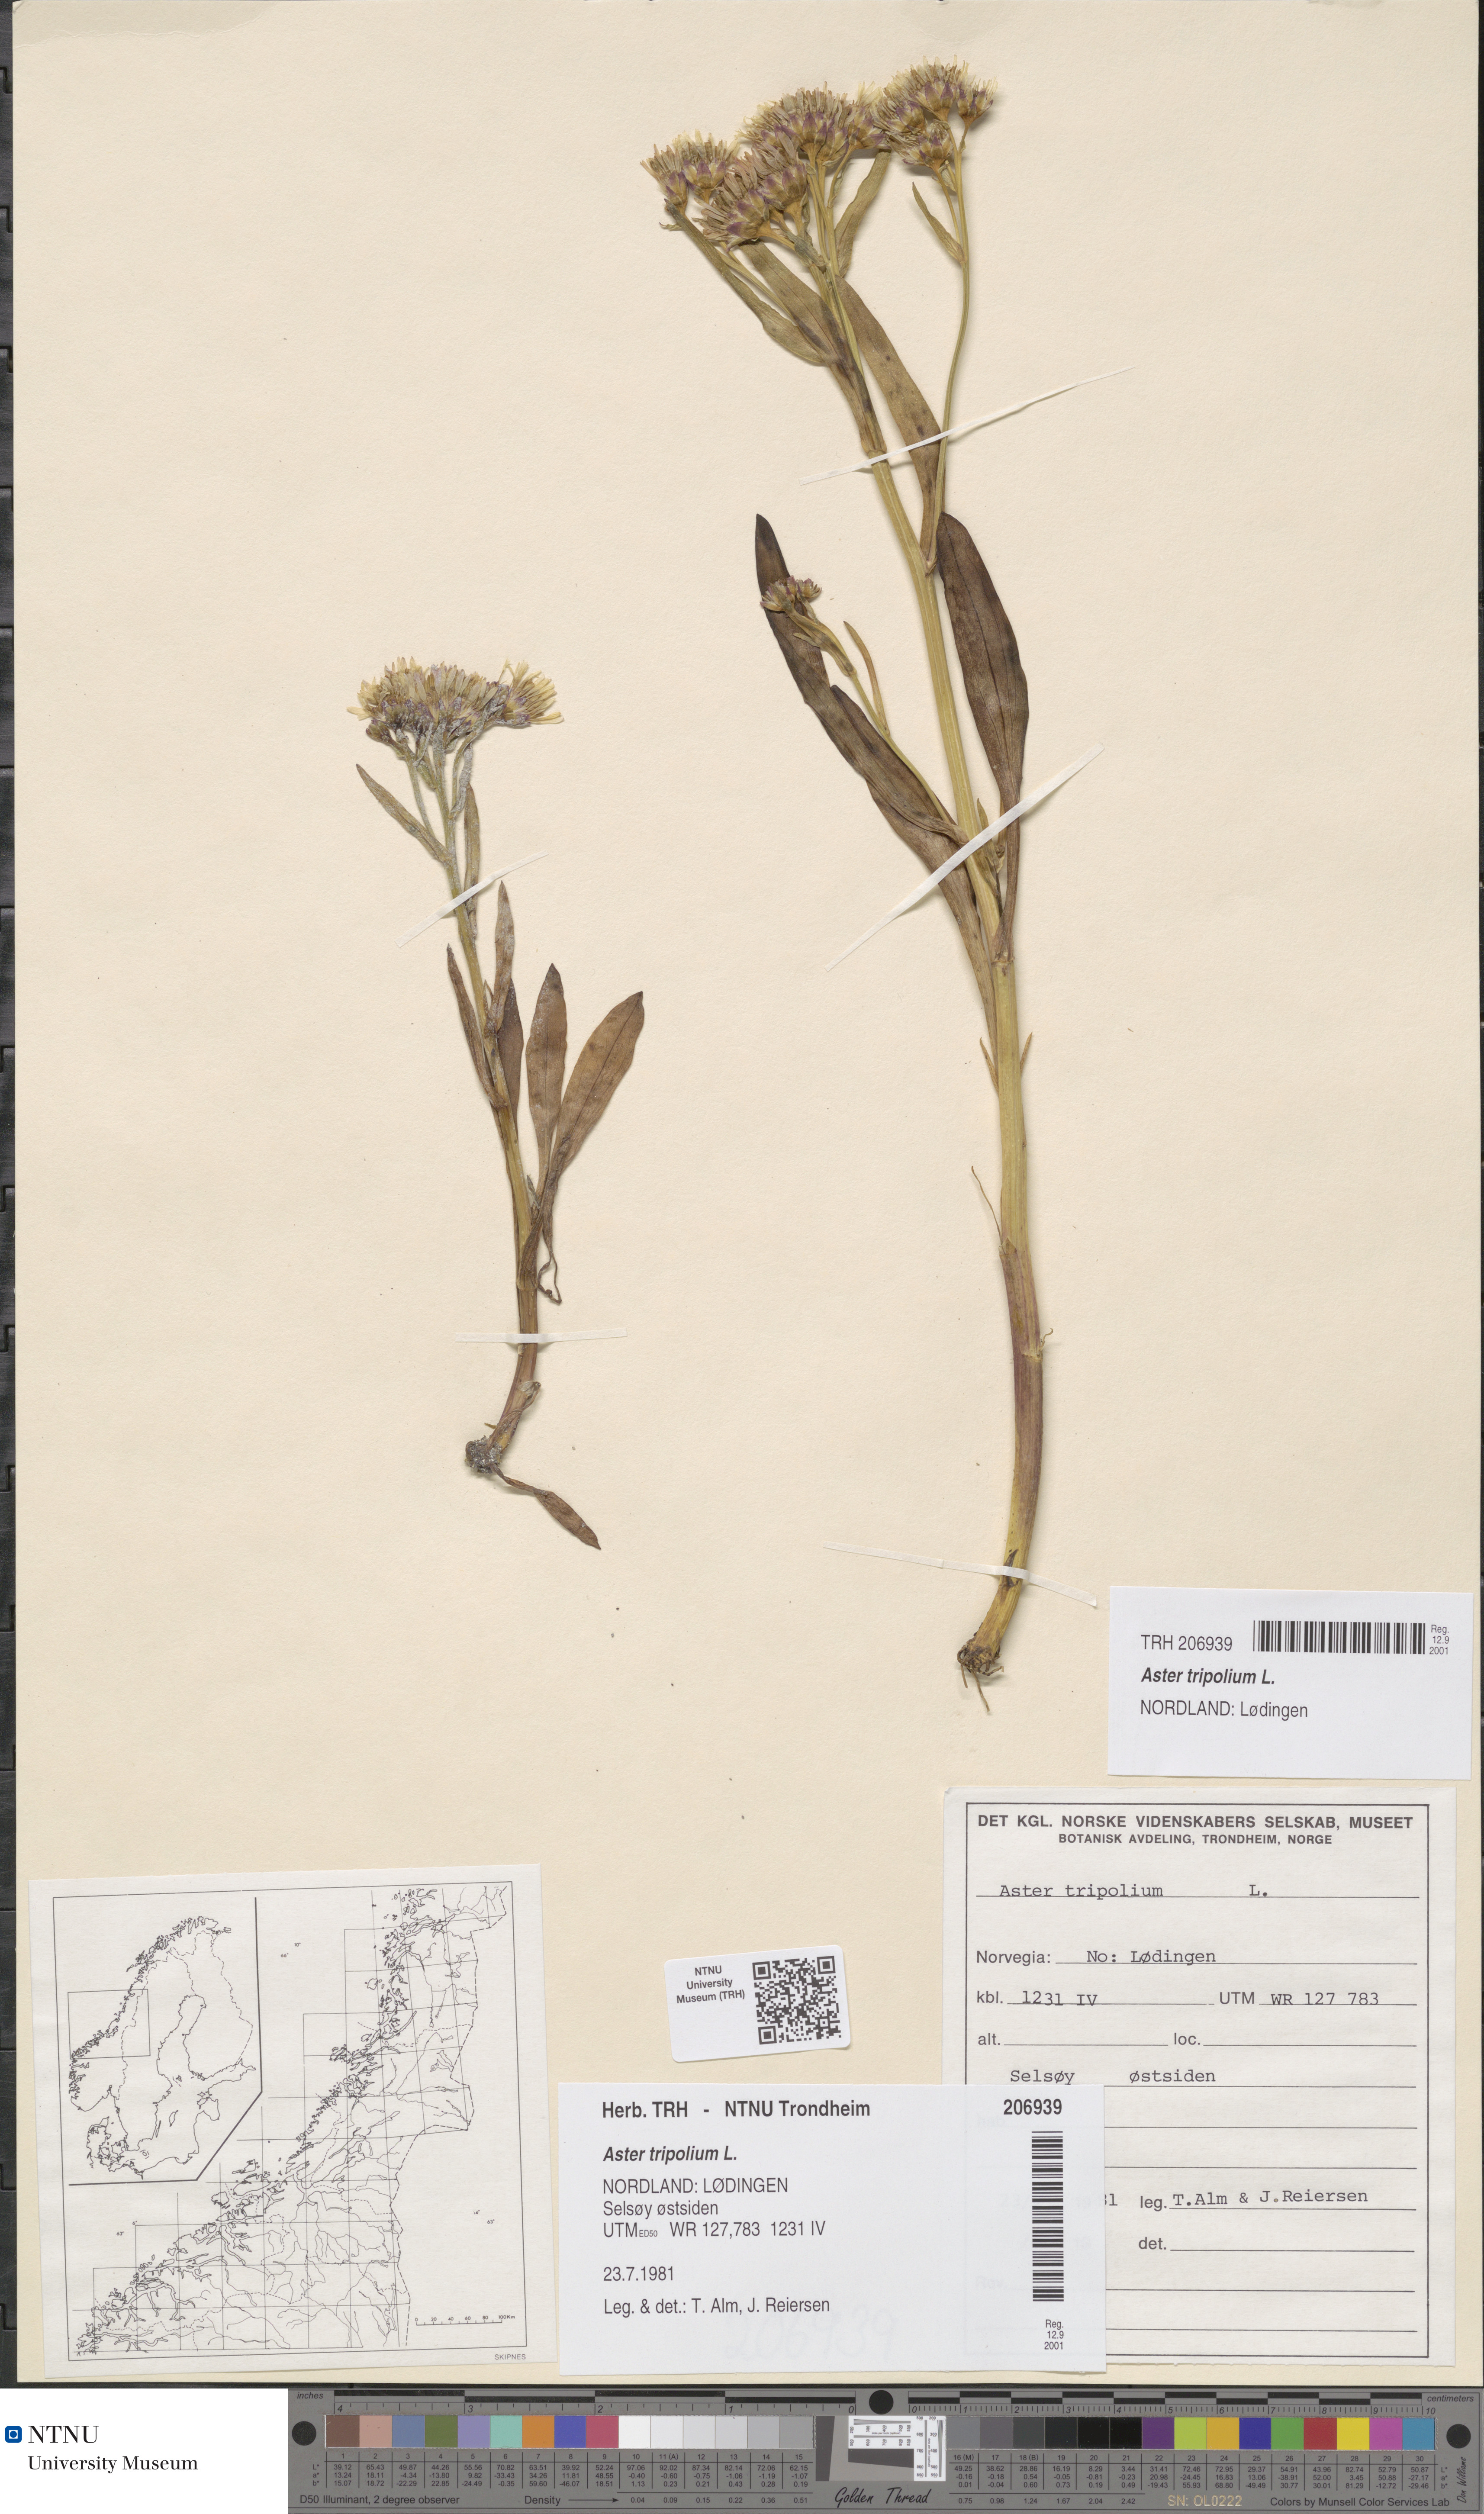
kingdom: Plantae
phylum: Tracheophyta
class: Magnoliopsida
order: Asterales
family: Asteraceae
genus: Tripolium
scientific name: Tripolium pannonicum
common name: Sea aster
